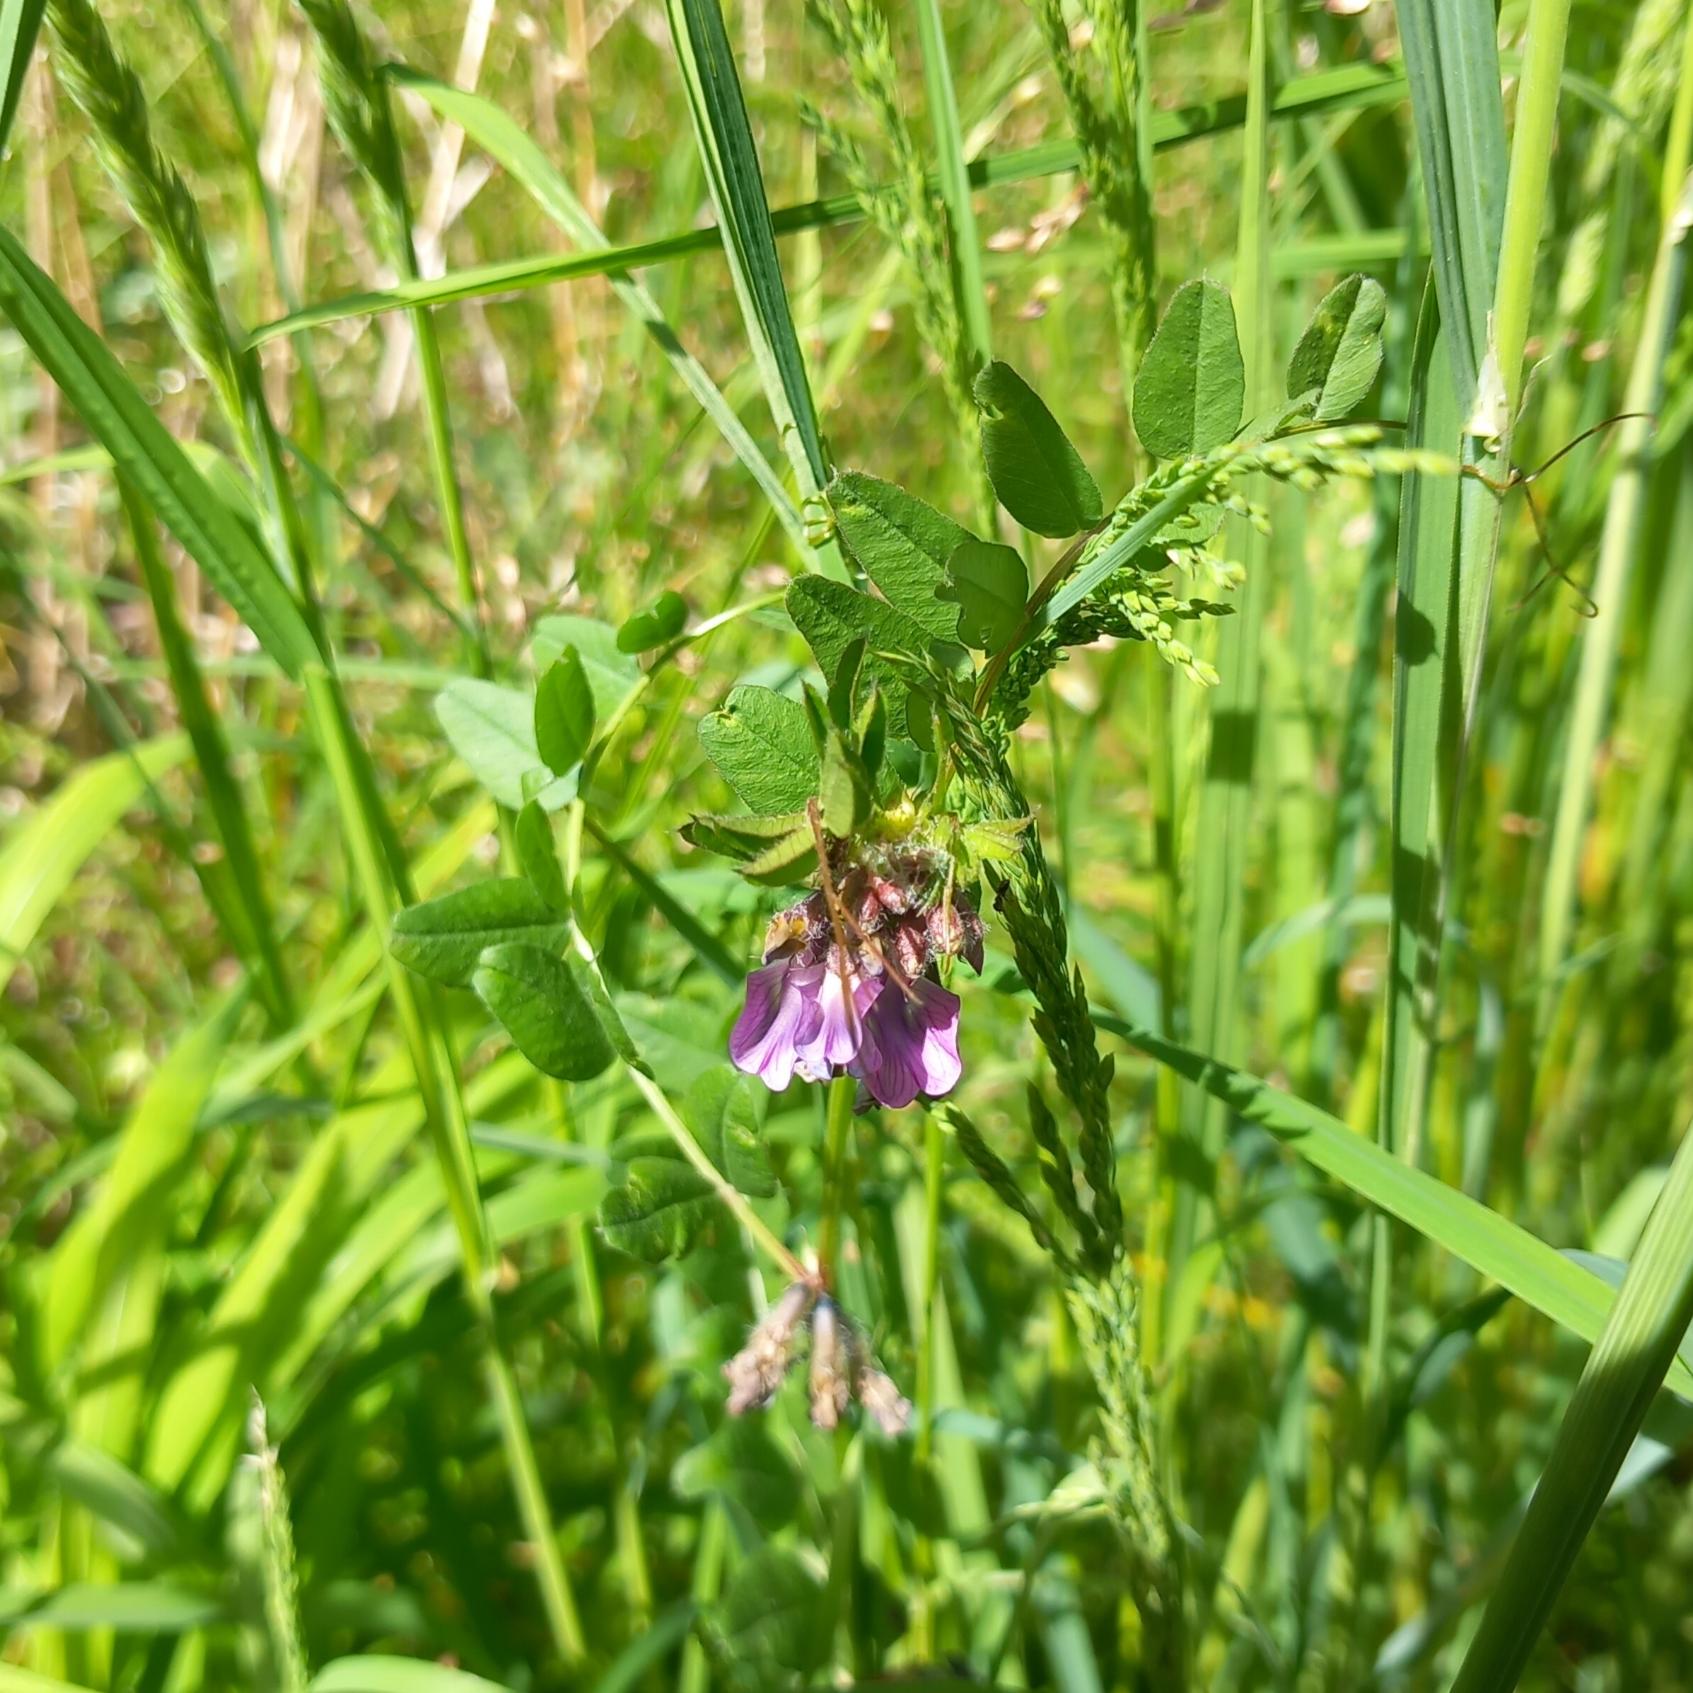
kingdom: Plantae
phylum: Tracheophyta
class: Magnoliopsida
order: Fabales
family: Fabaceae
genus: Vicia
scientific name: Vicia sepium
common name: Gærde-vikke
